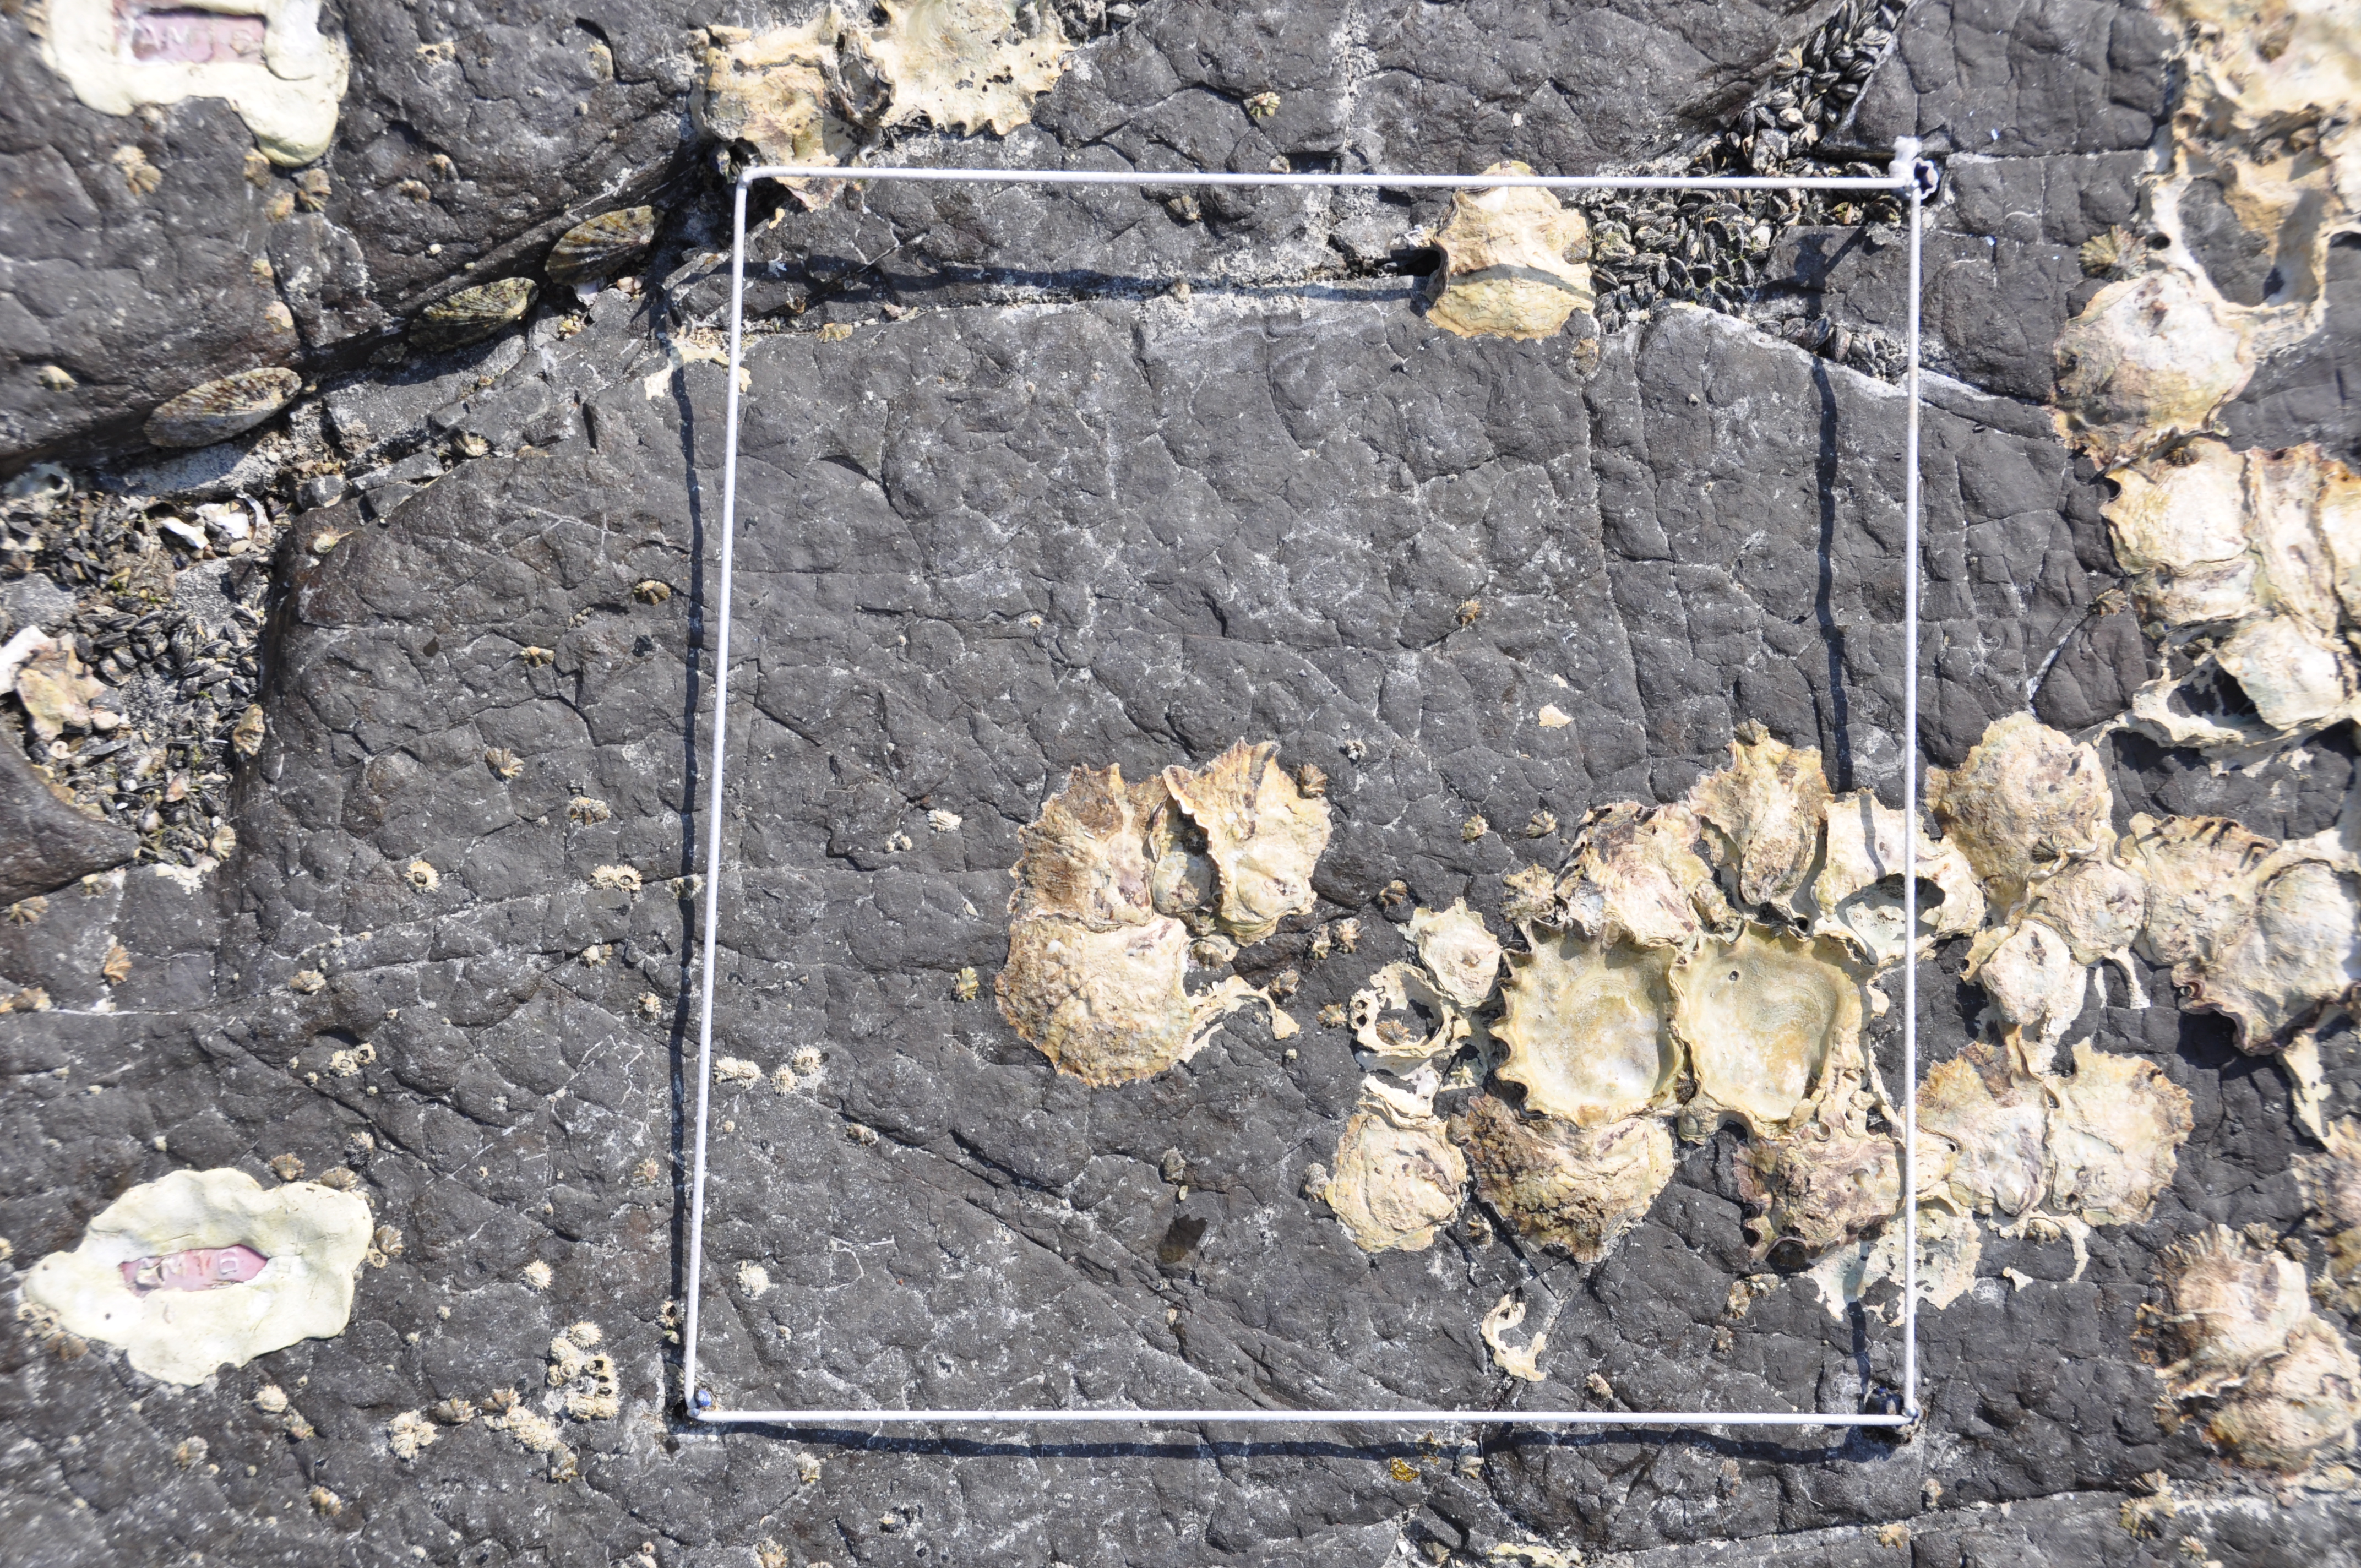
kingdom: Animalia
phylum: Arthropoda
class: Maxillopoda
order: Sessilia
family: Chthamalidae
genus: Chthamalus
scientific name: Chthamalus challengeri
